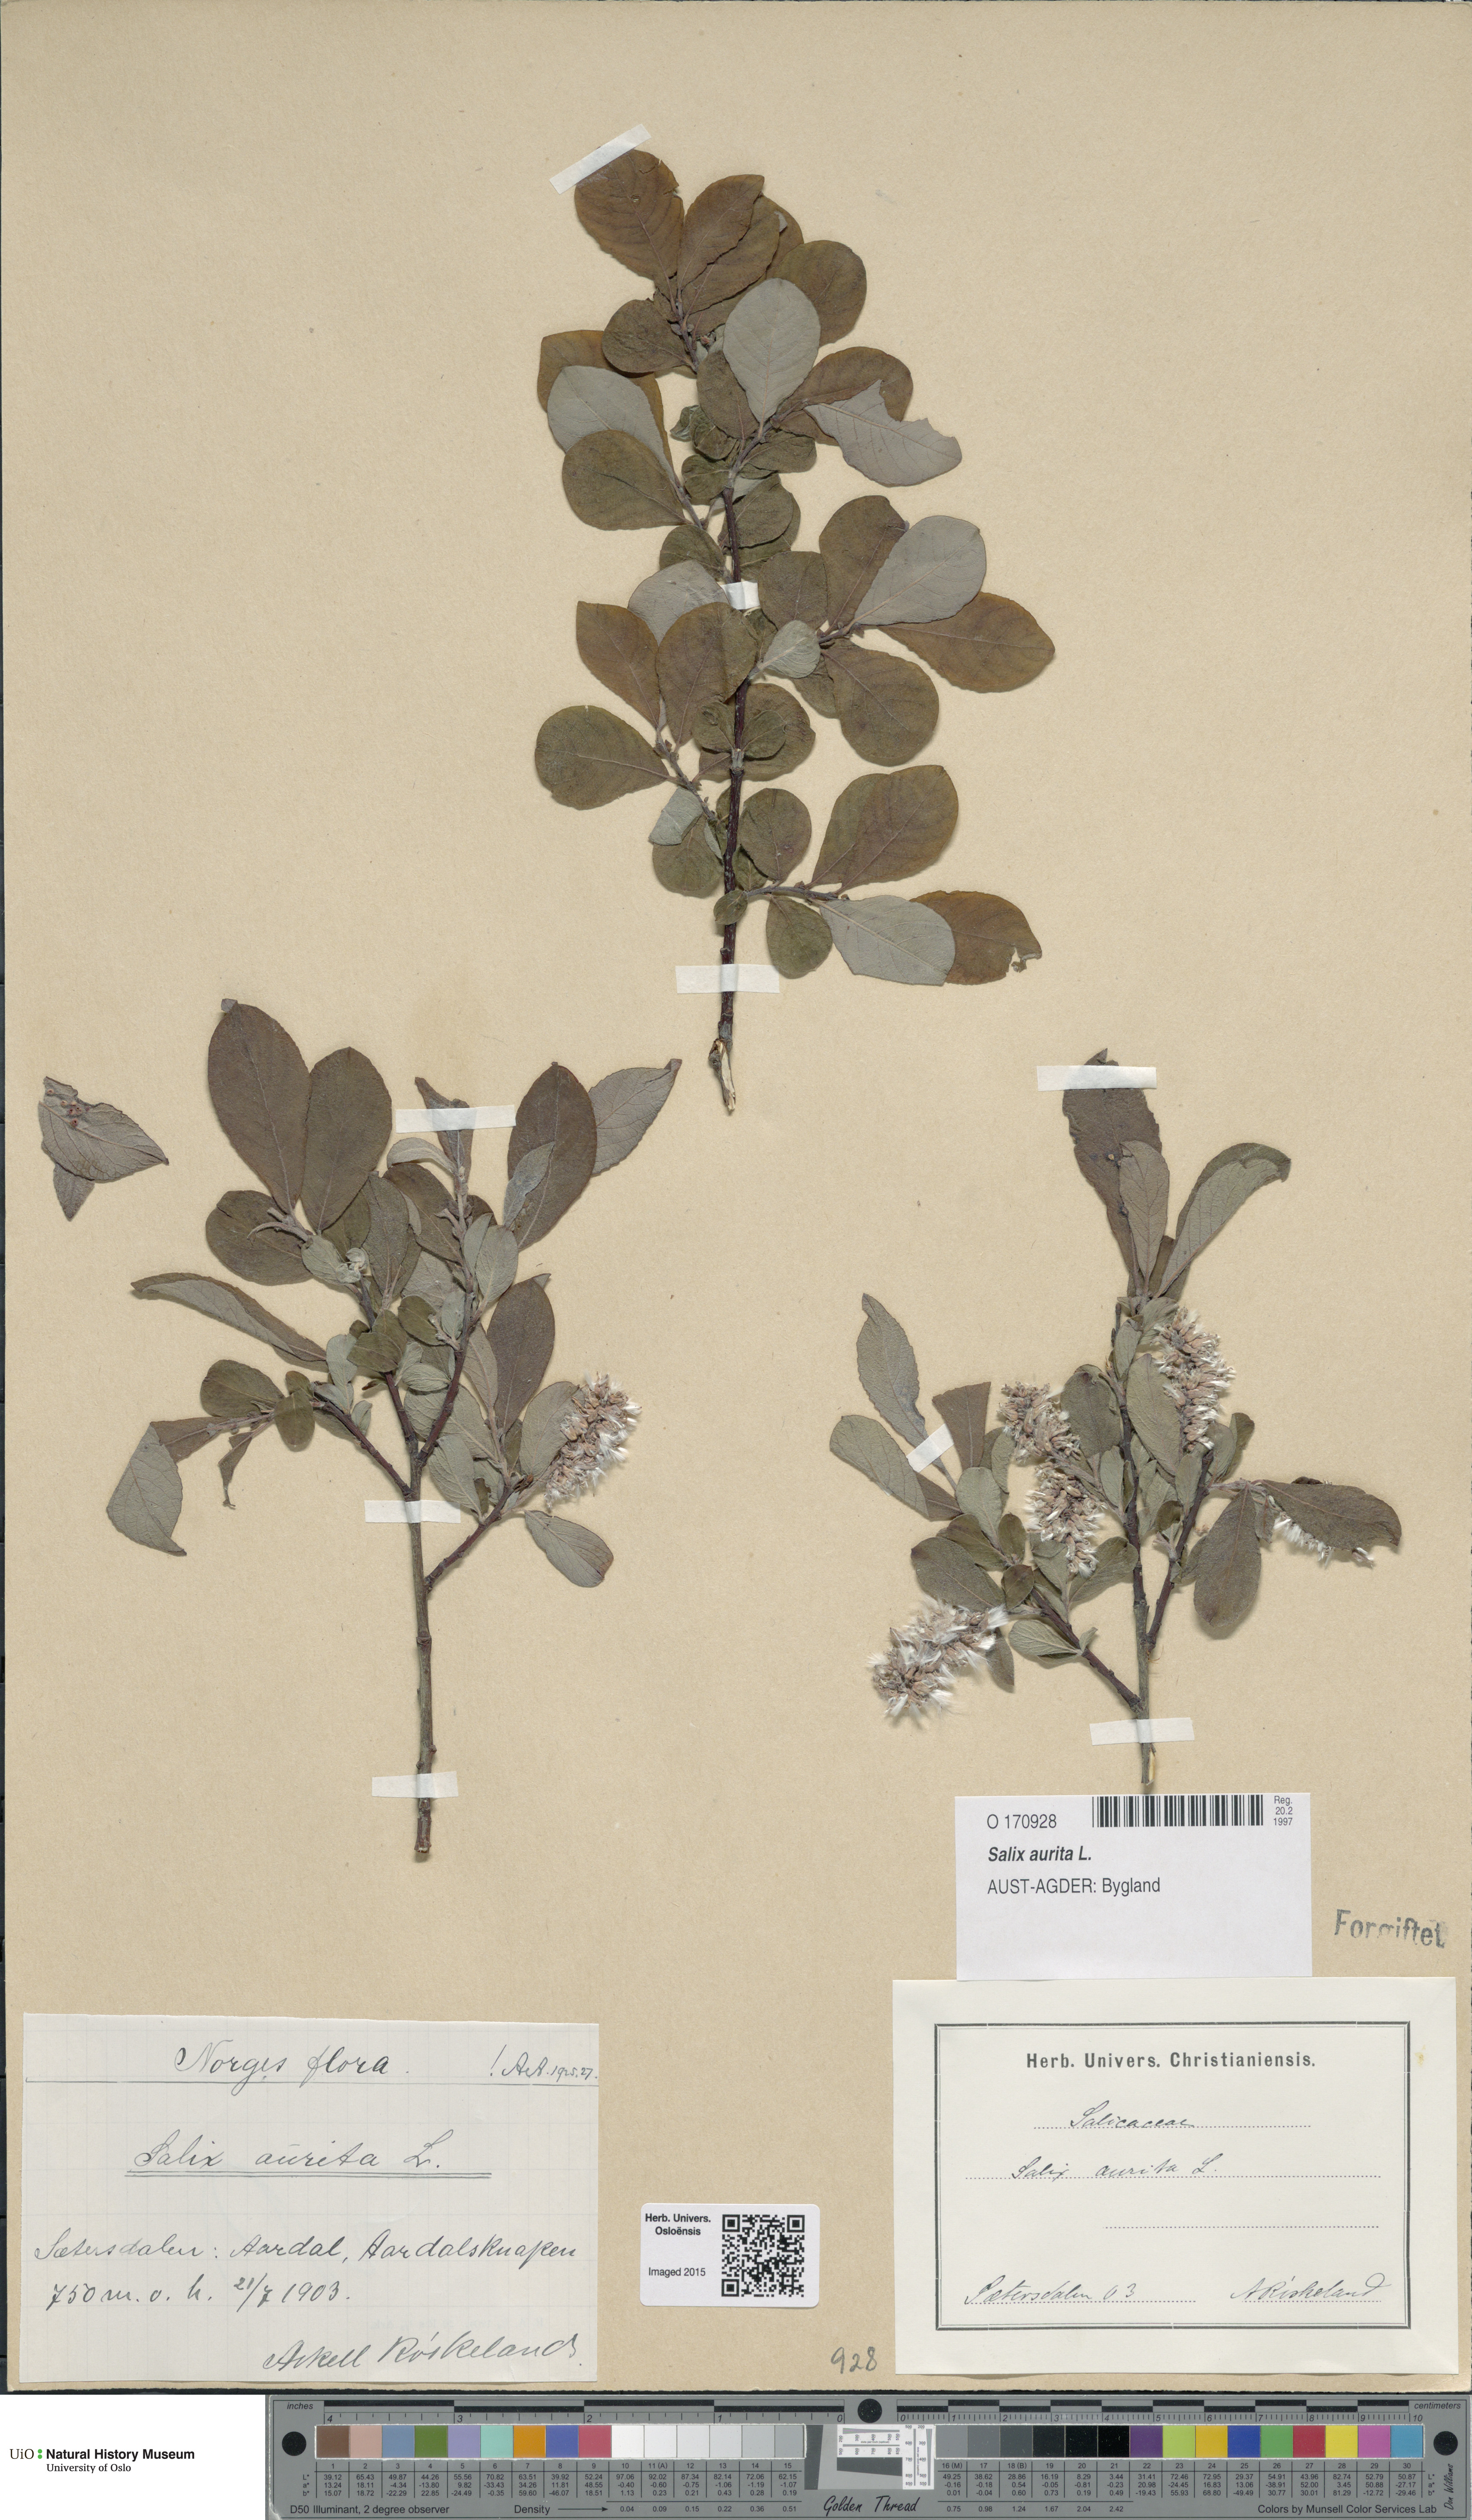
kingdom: Plantae
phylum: Tracheophyta
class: Magnoliopsida
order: Malpighiales
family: Salicaceae
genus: Salix
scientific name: Salix aurita
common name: Eared willow
